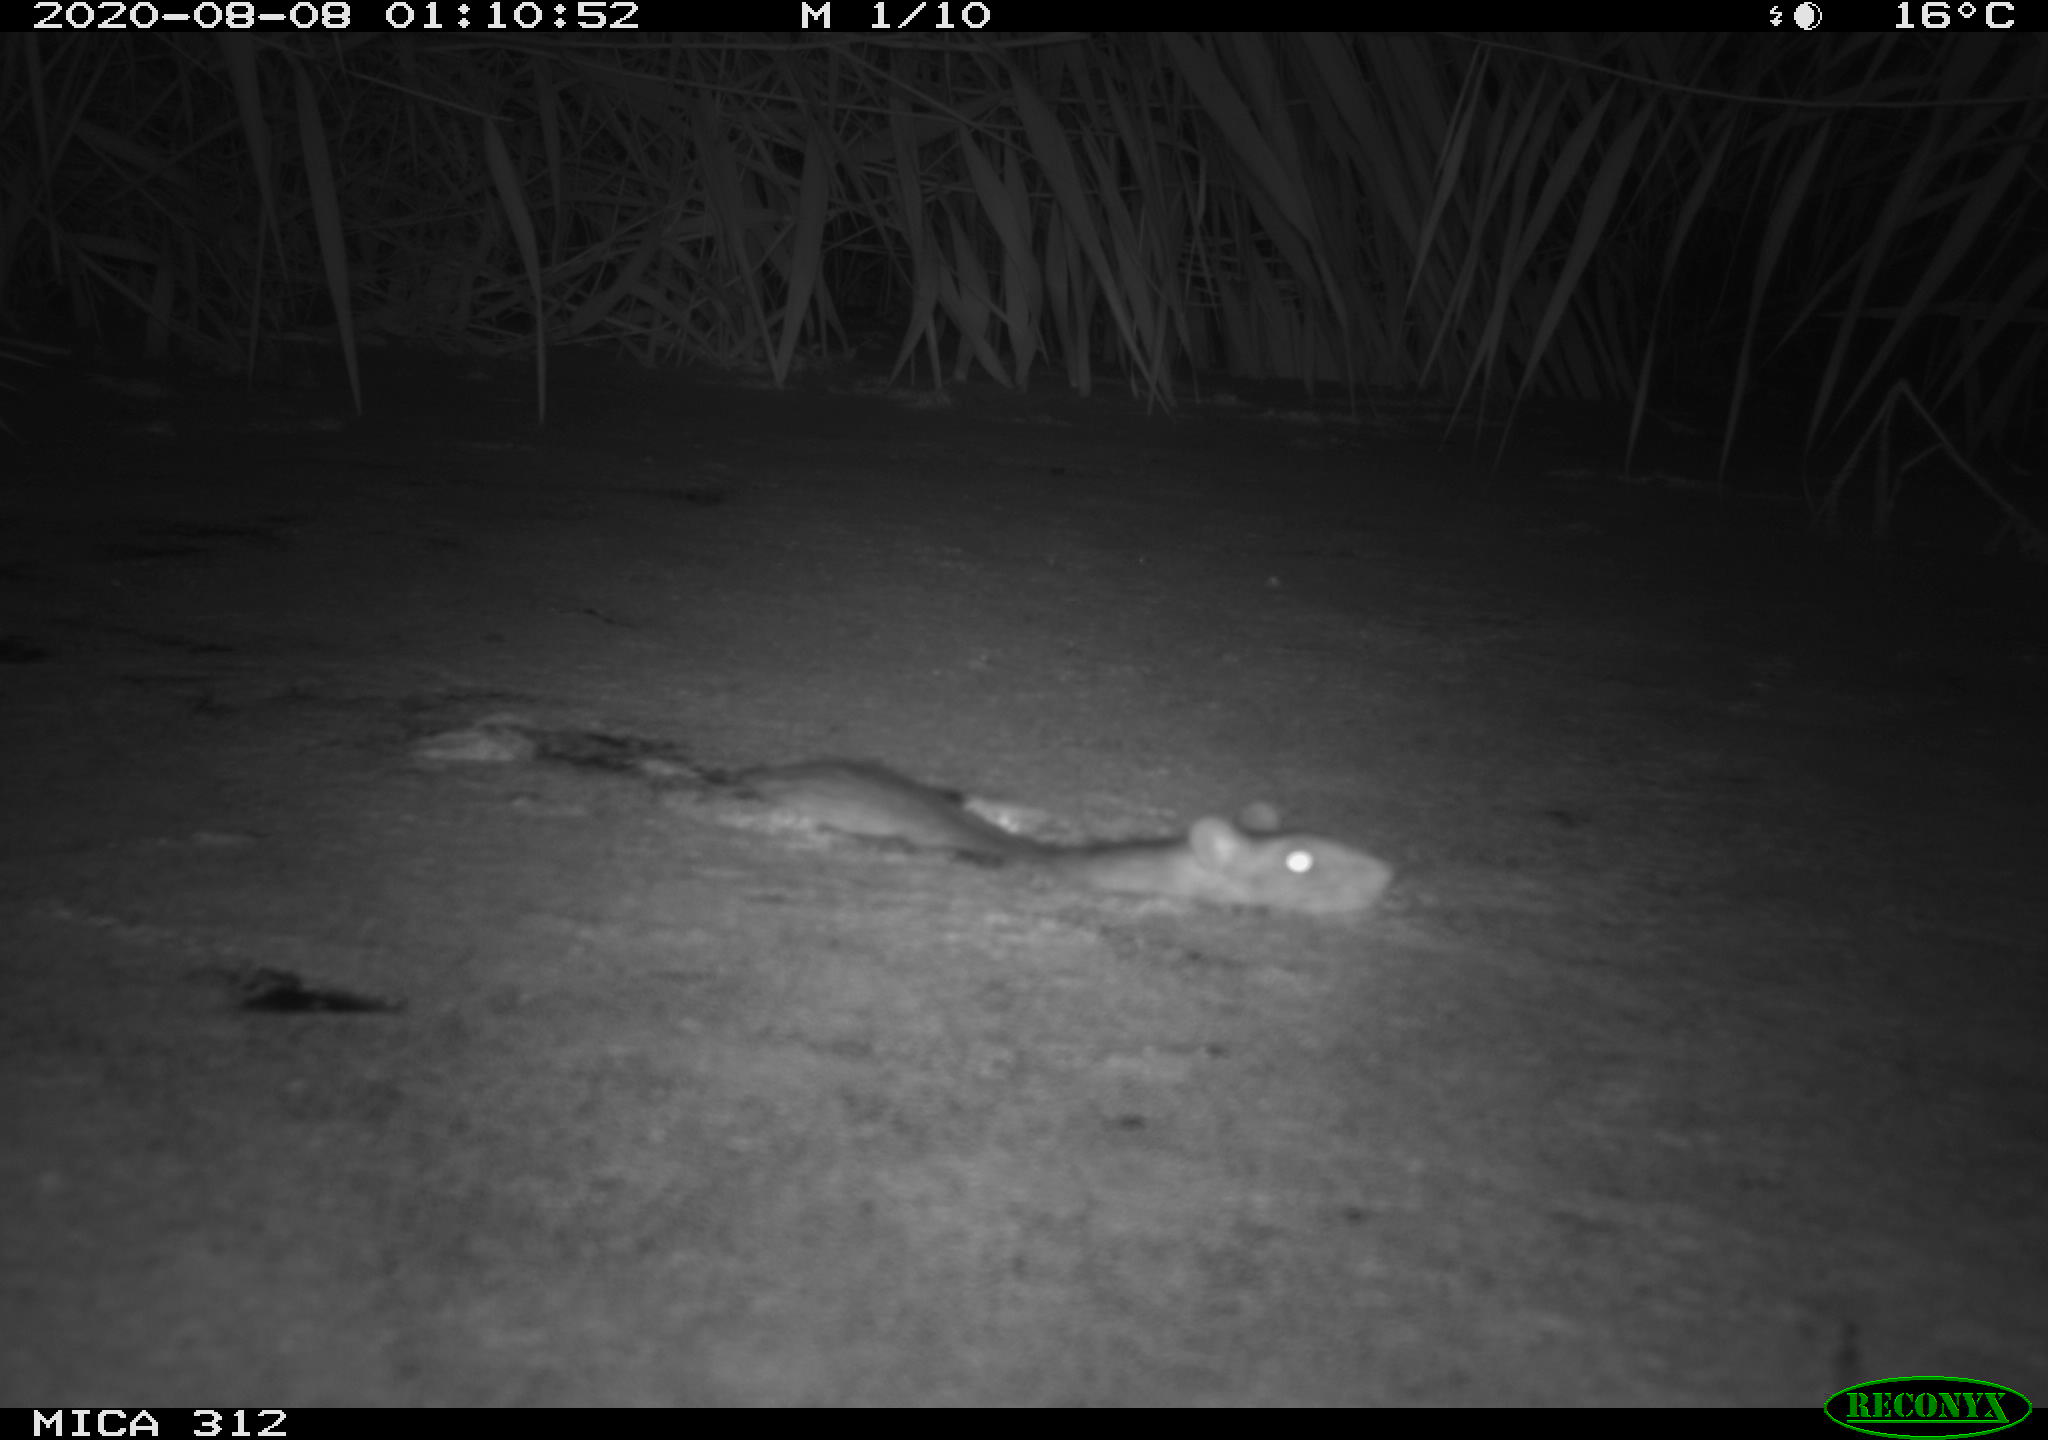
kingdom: Animalia
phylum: Chordata
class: Mammalia
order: Rodentia
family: Cricetidae
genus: Ondatra
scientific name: Ondatra zibethicus
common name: Muskrat
